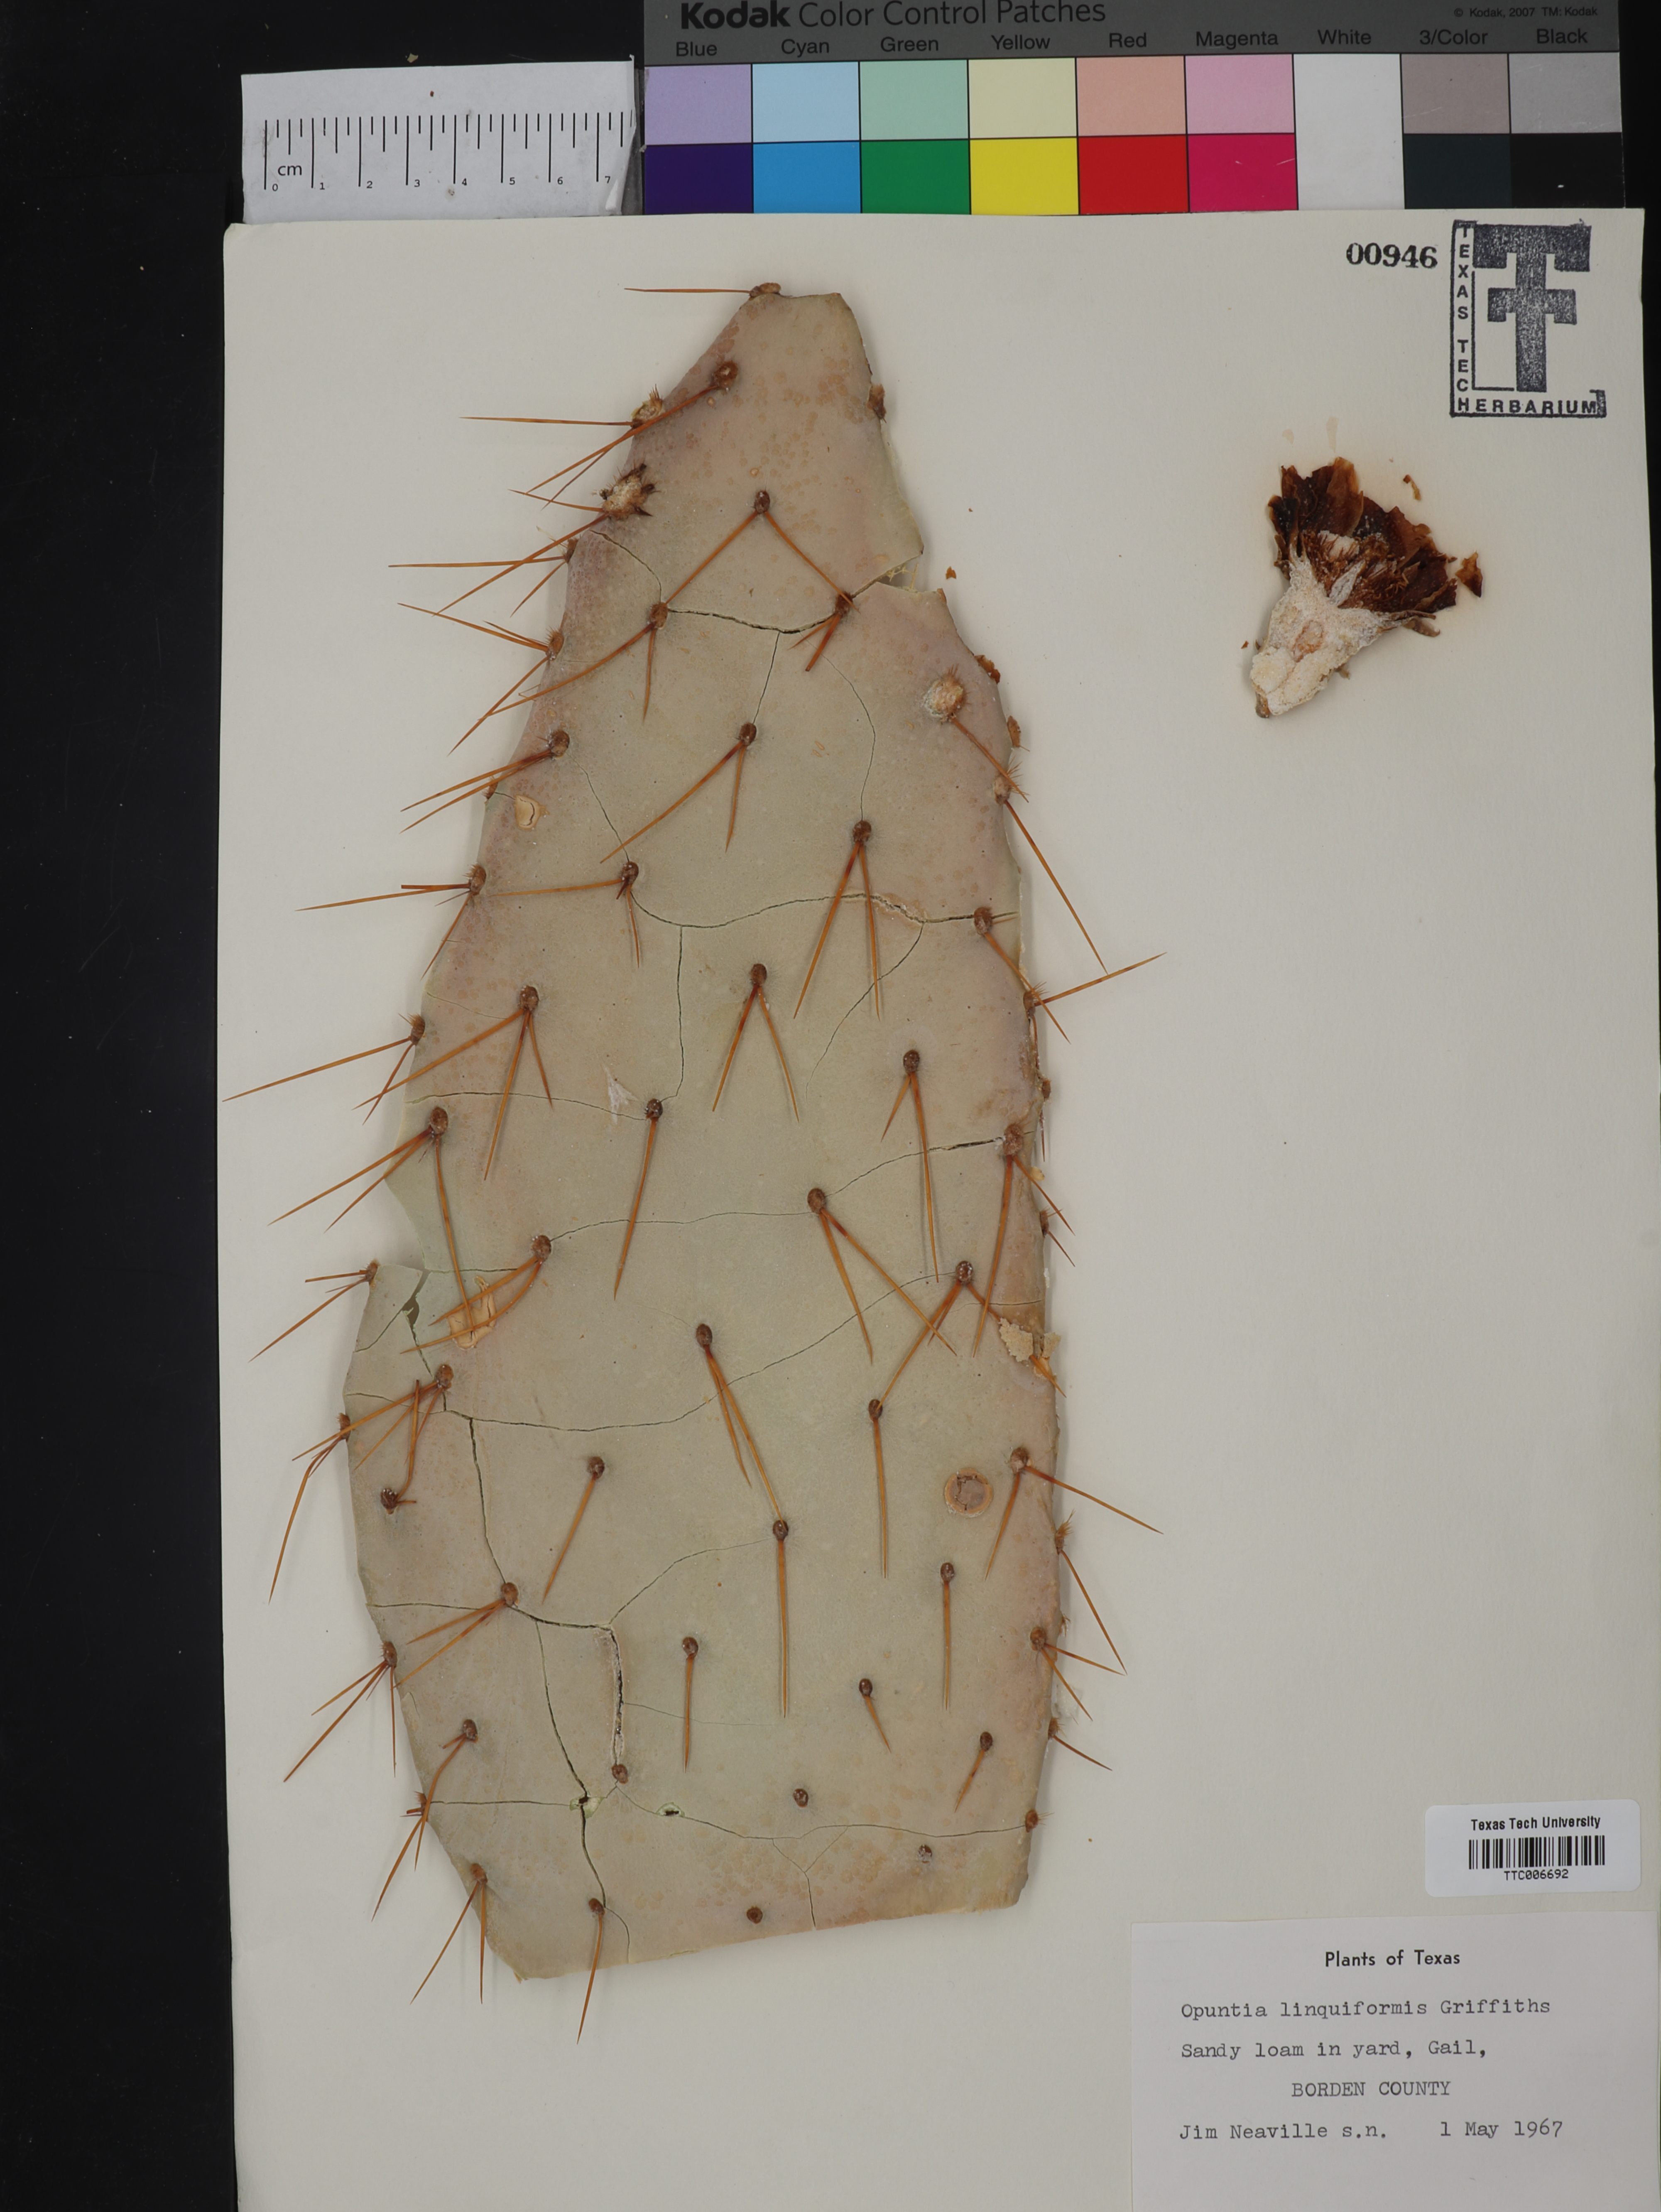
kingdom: Plantae
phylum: Tracheophyta
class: Magnoliopsida
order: Caryophyllales
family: Cactaceae
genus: Opuntia
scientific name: Opuntia engelmannii
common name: Cactus-apple
